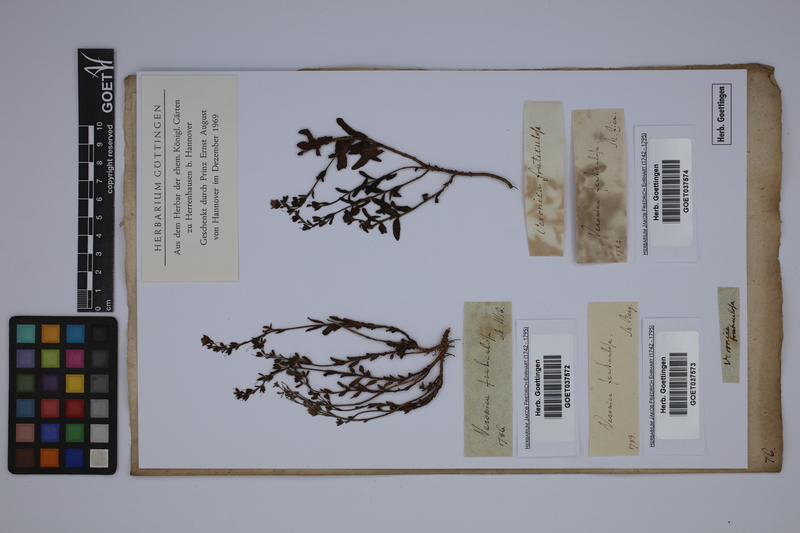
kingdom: Plantae
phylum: Tracheophyta
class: Magnoliopsida
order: Lamiales
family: Plantaginaceae
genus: Veronica
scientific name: Veronica fruticulosa
